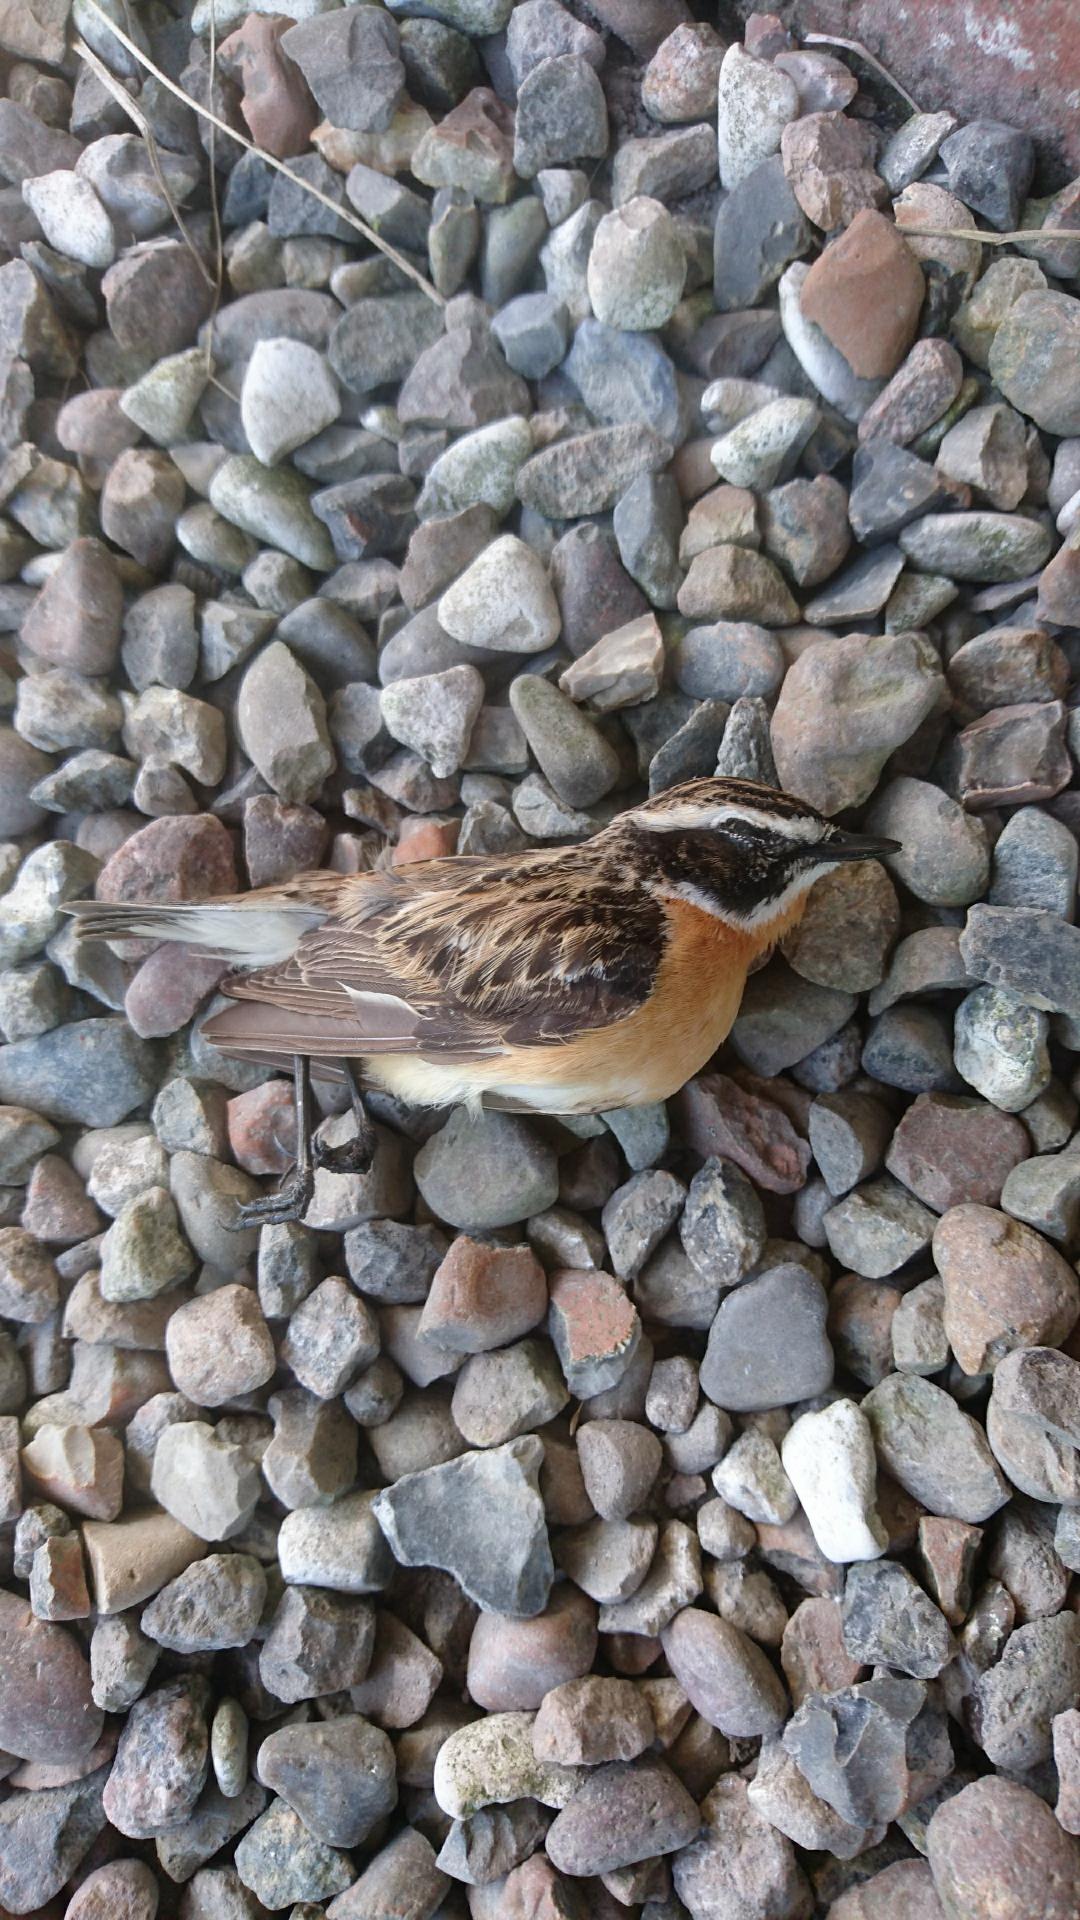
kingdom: Animalia
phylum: Chordata
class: Aves
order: Passeriformes
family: Muscicapidae
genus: Saxicola
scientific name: Saxicola rubetra
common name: Bynkefugl
